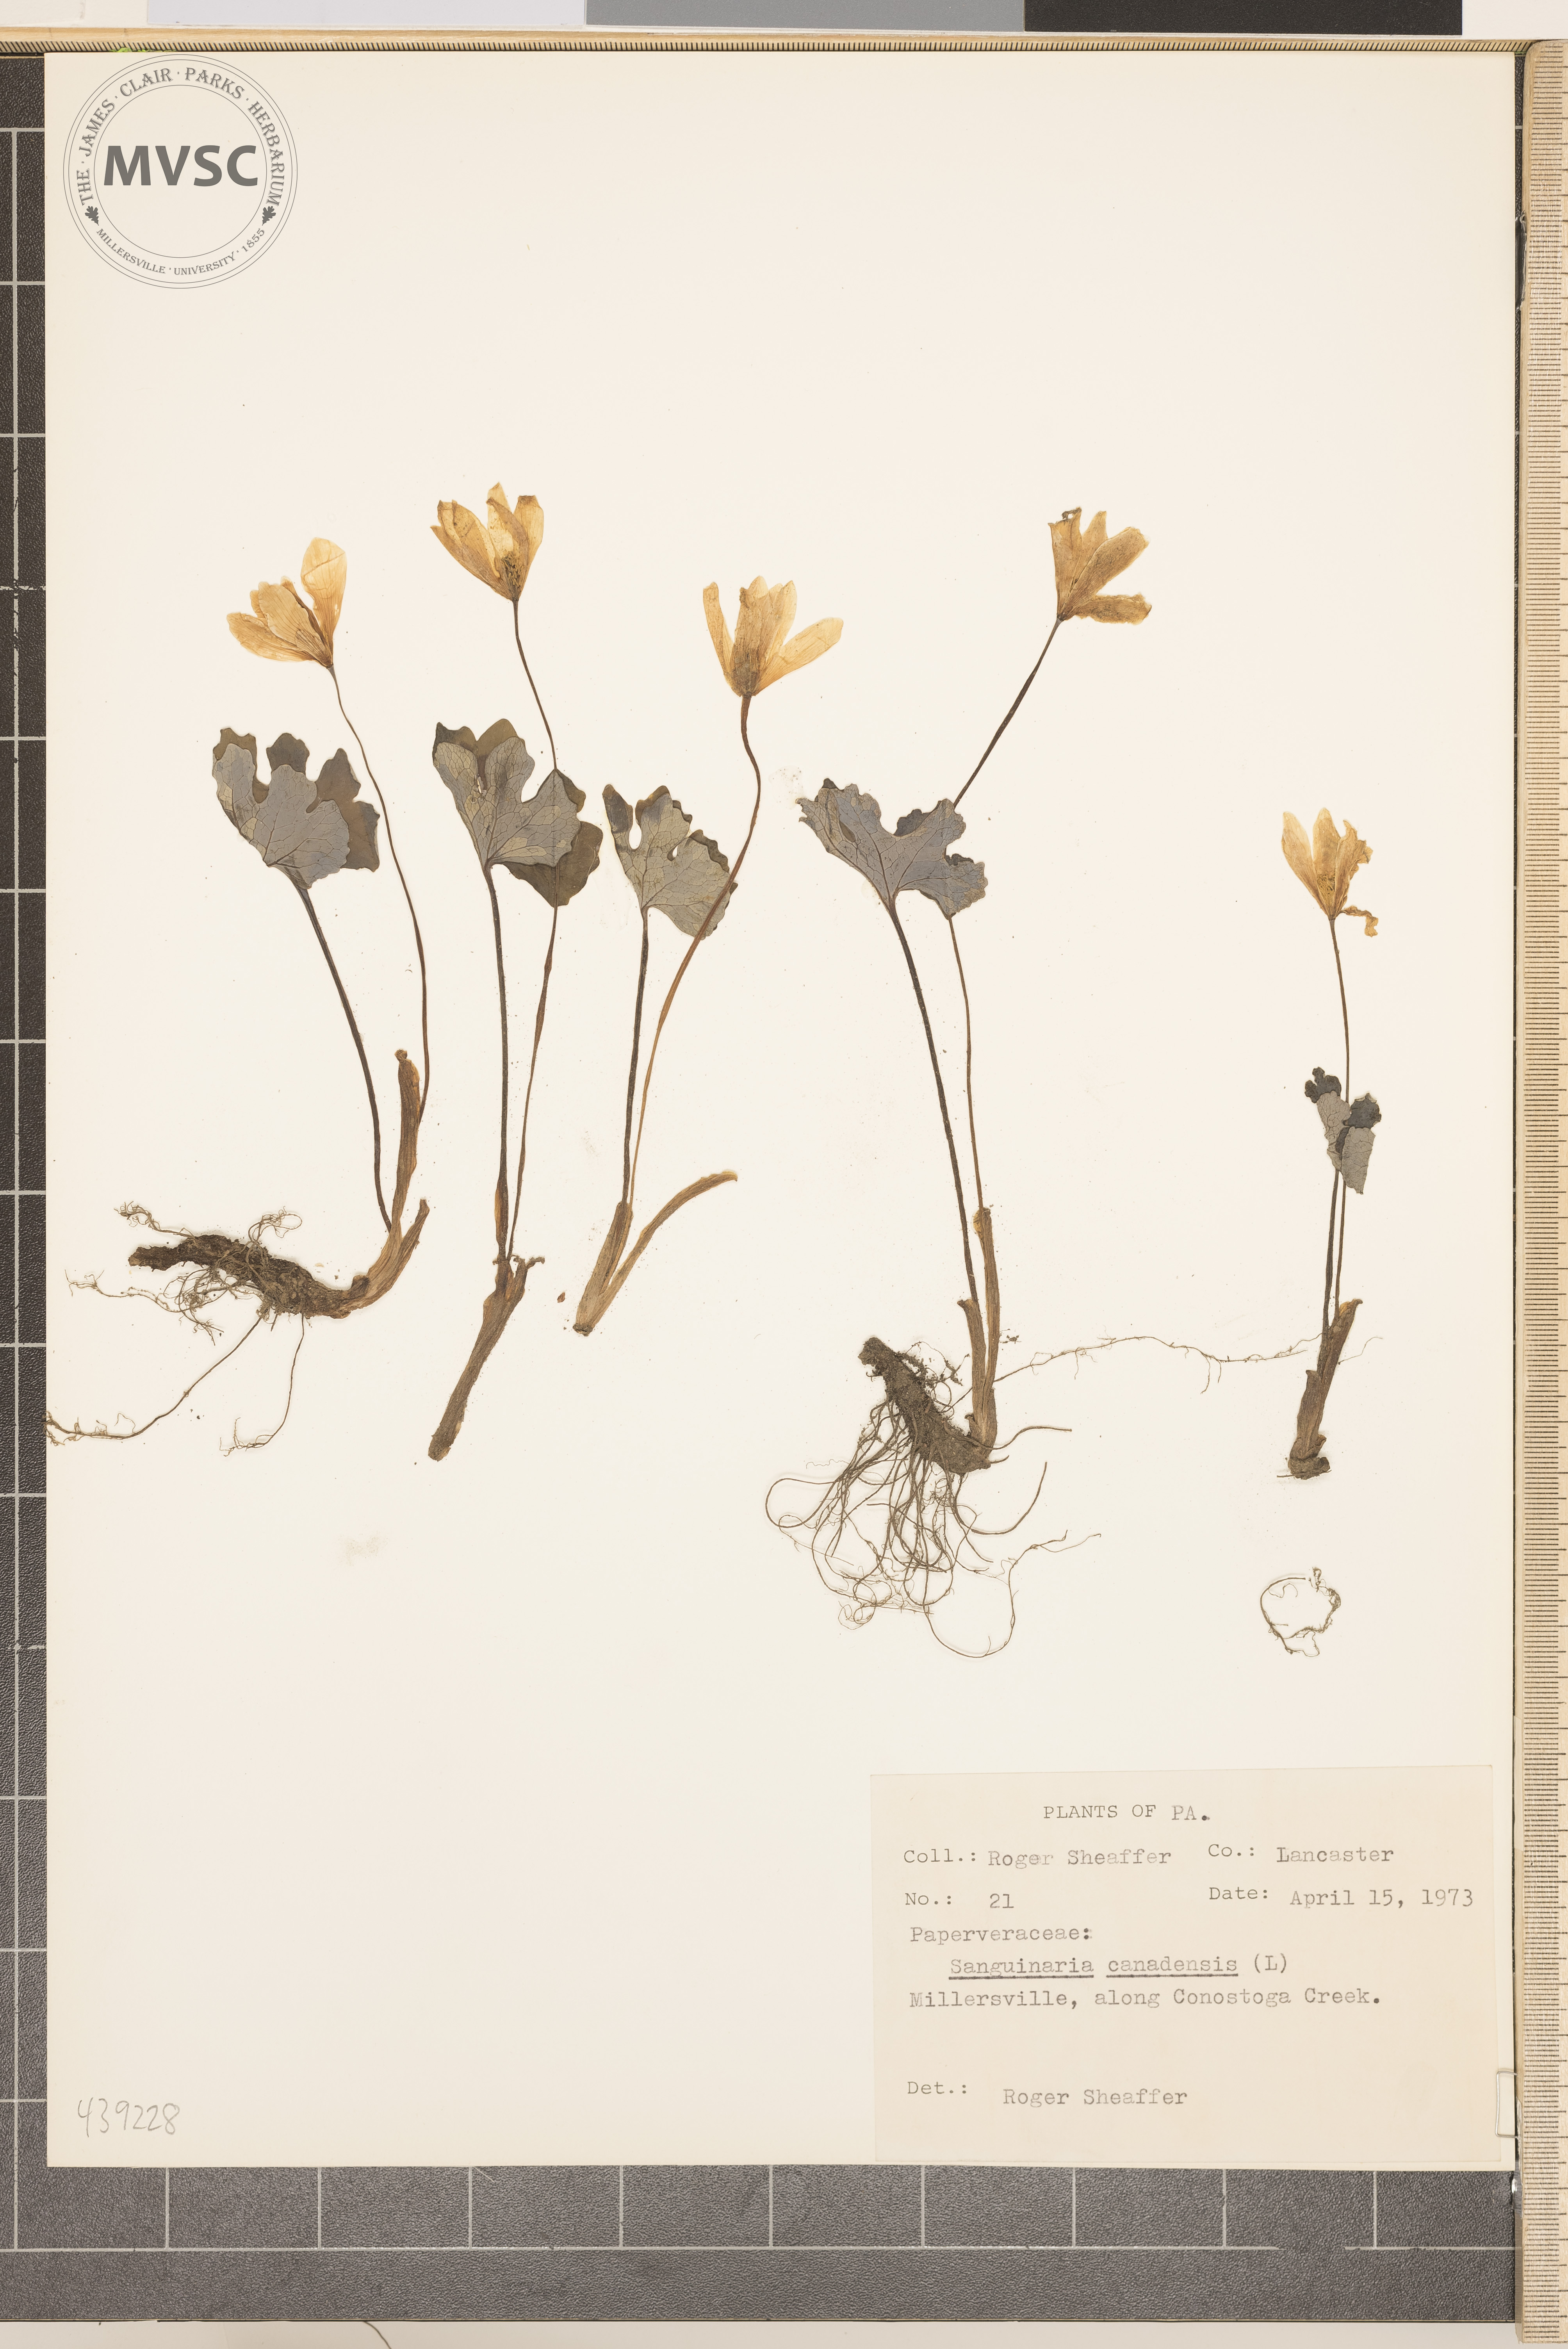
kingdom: Plantae
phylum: Tracheophyta
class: Magnoliopsida
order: Ranunculales
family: Papaveraceae
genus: Sanguinaria
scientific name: Sanguinaria canadensis
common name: Bloodroot
